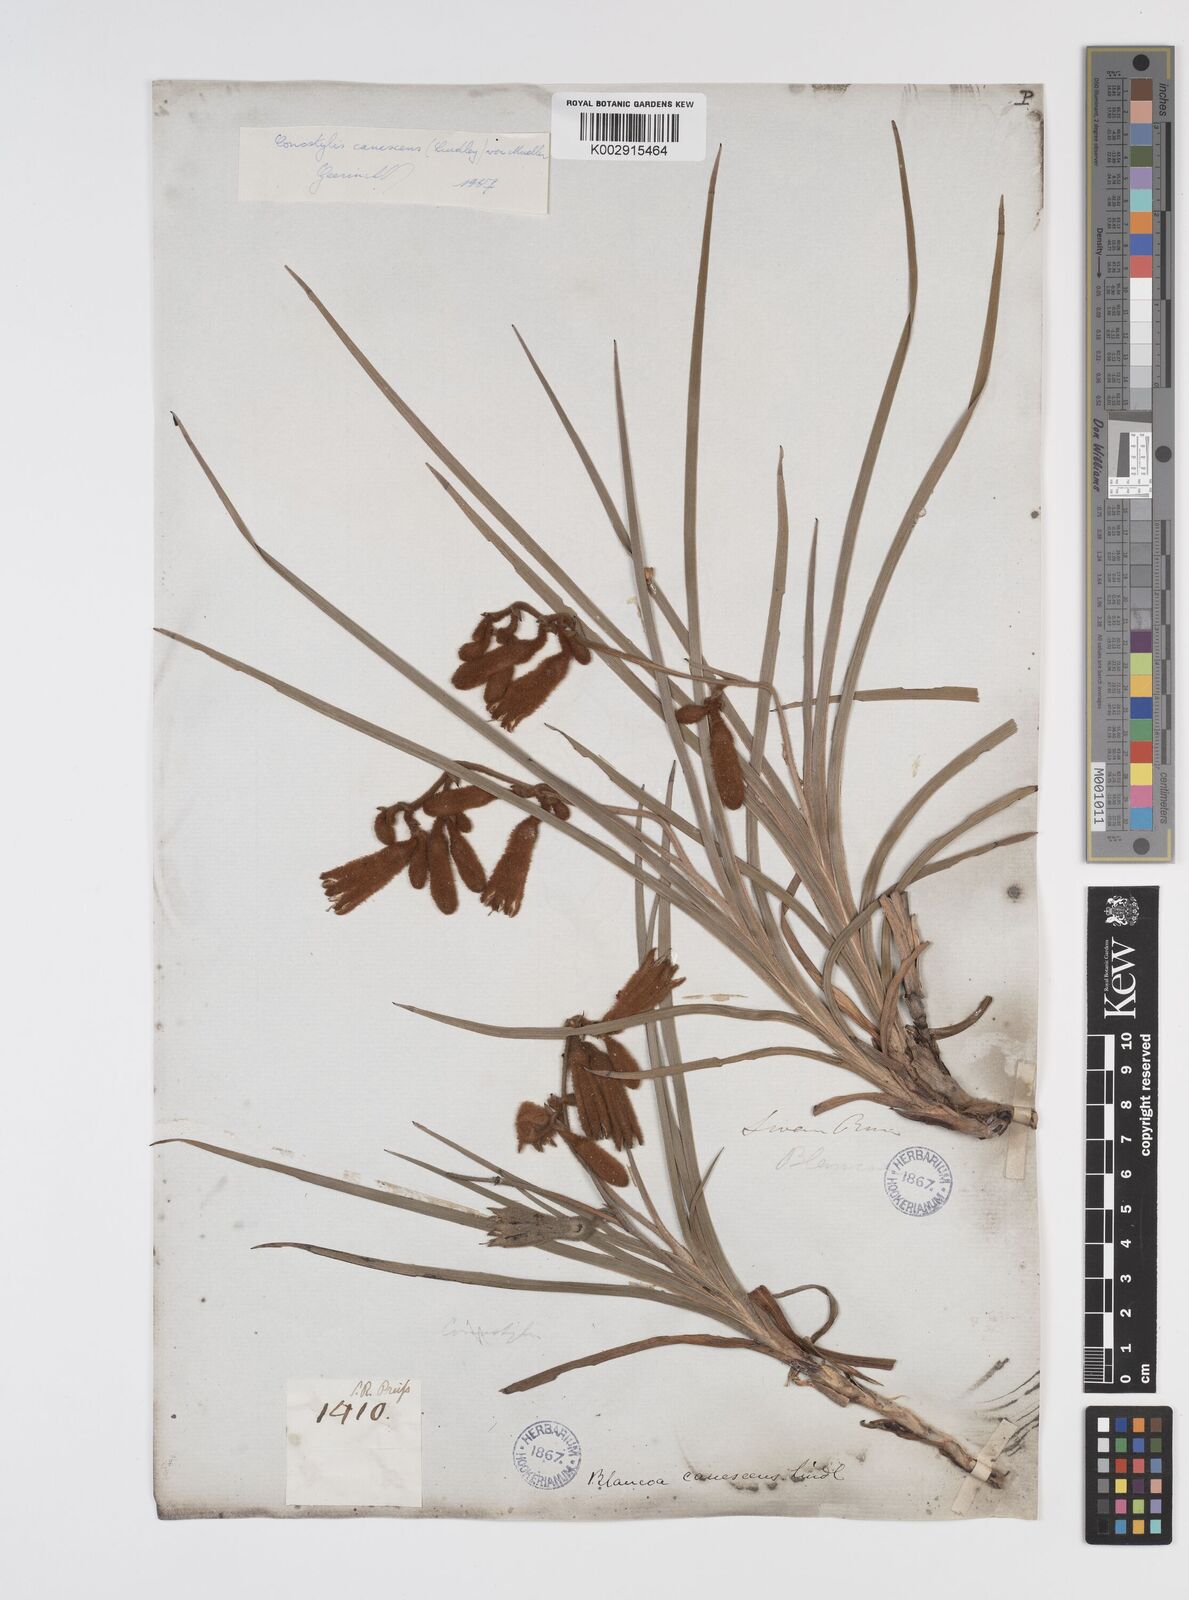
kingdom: Plantae
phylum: Tracheophyta
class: Liliopsida
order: Commelinales
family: Haemodoraceae
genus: Blancoa
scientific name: Blancoa canescens
